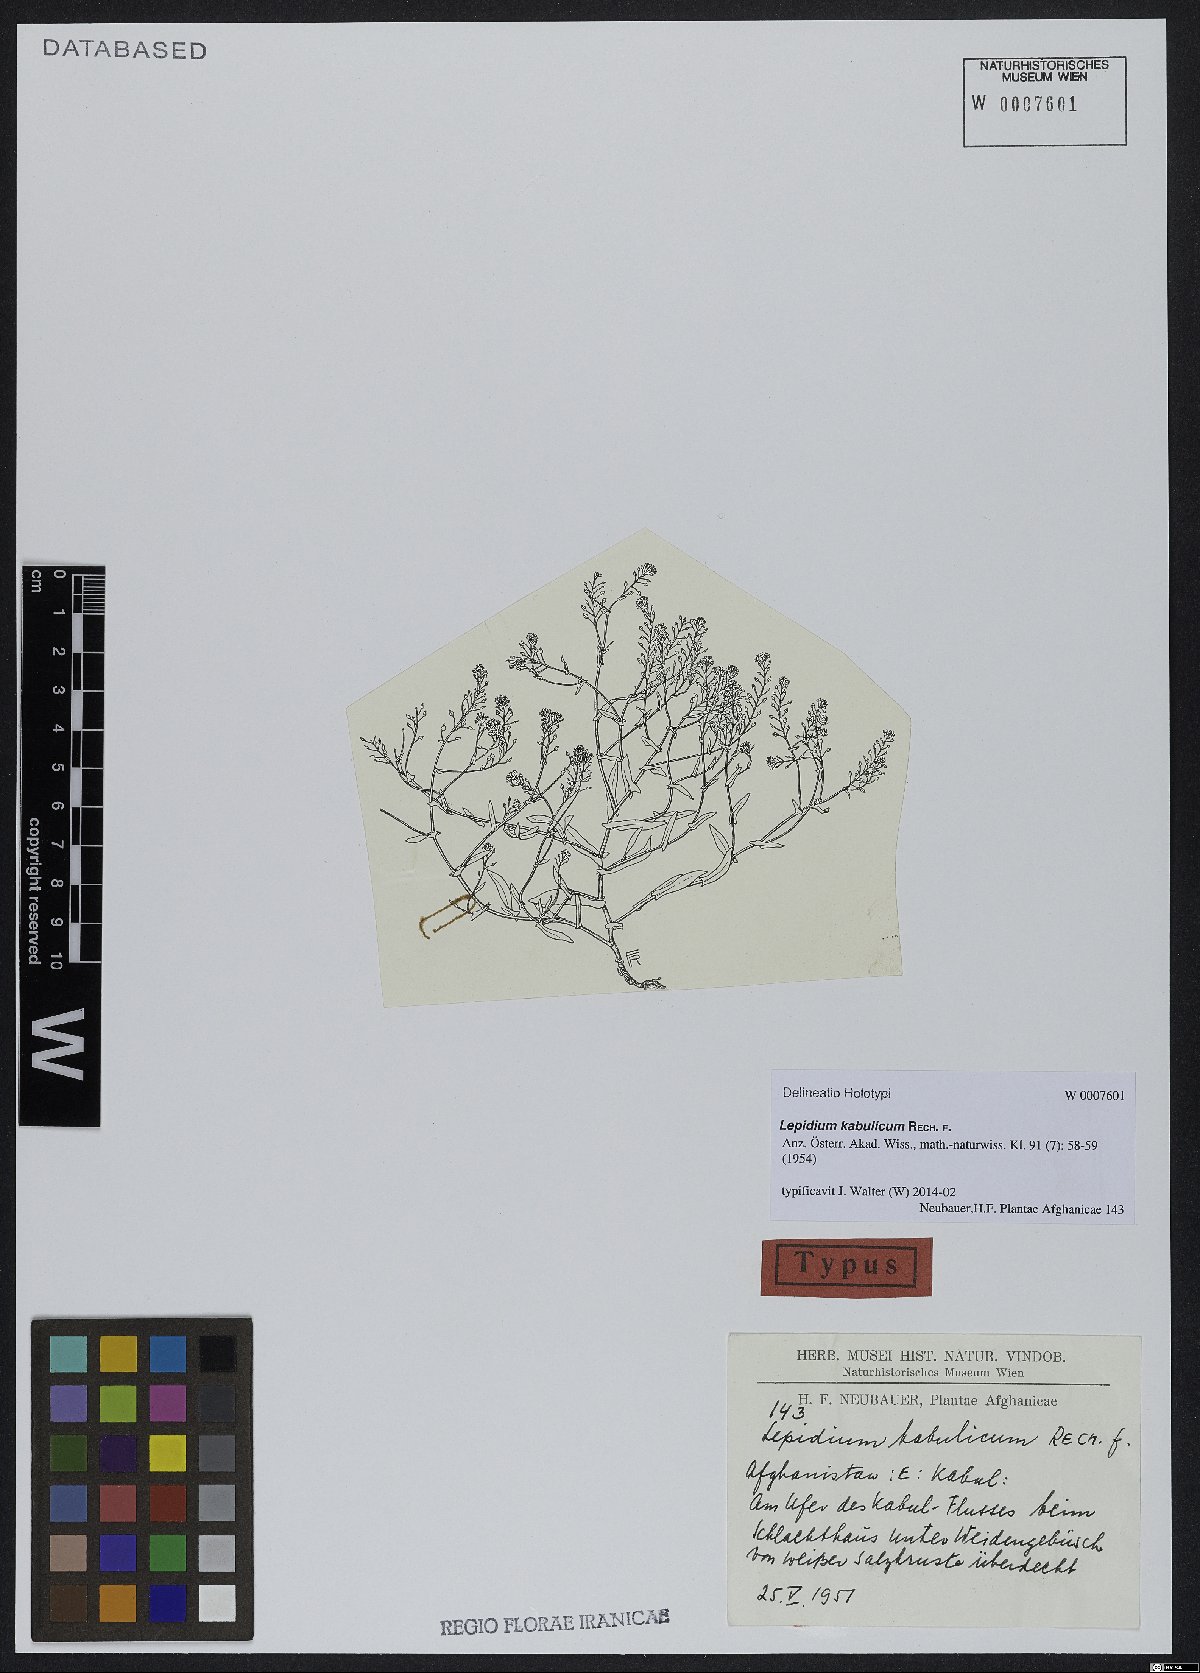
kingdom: Plantae
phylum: Tracheophyta
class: Magnoliopsida
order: Brassicales
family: Brassicaceae
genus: Lepidium
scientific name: Lepidium cartilagineum
